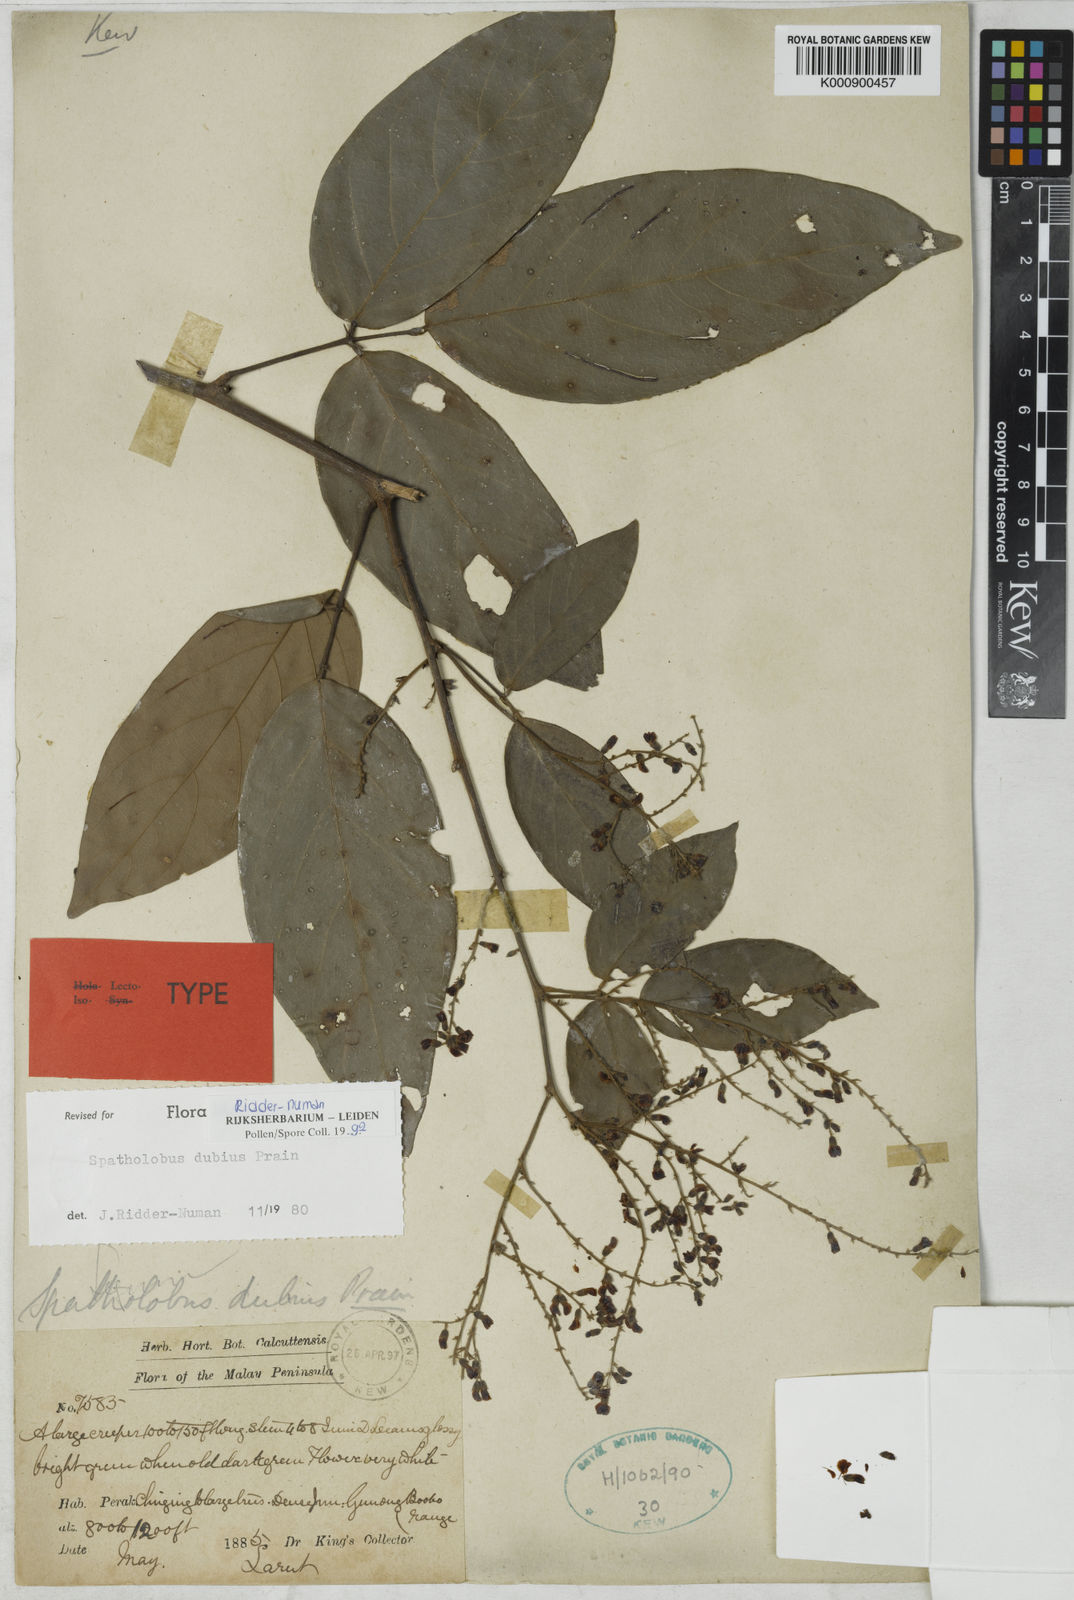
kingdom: Plantae
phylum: Tracheophyta
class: Magnoliopsida
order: Fabales
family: Fabaceae
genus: Spatholobus
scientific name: Spatholobus dubius
